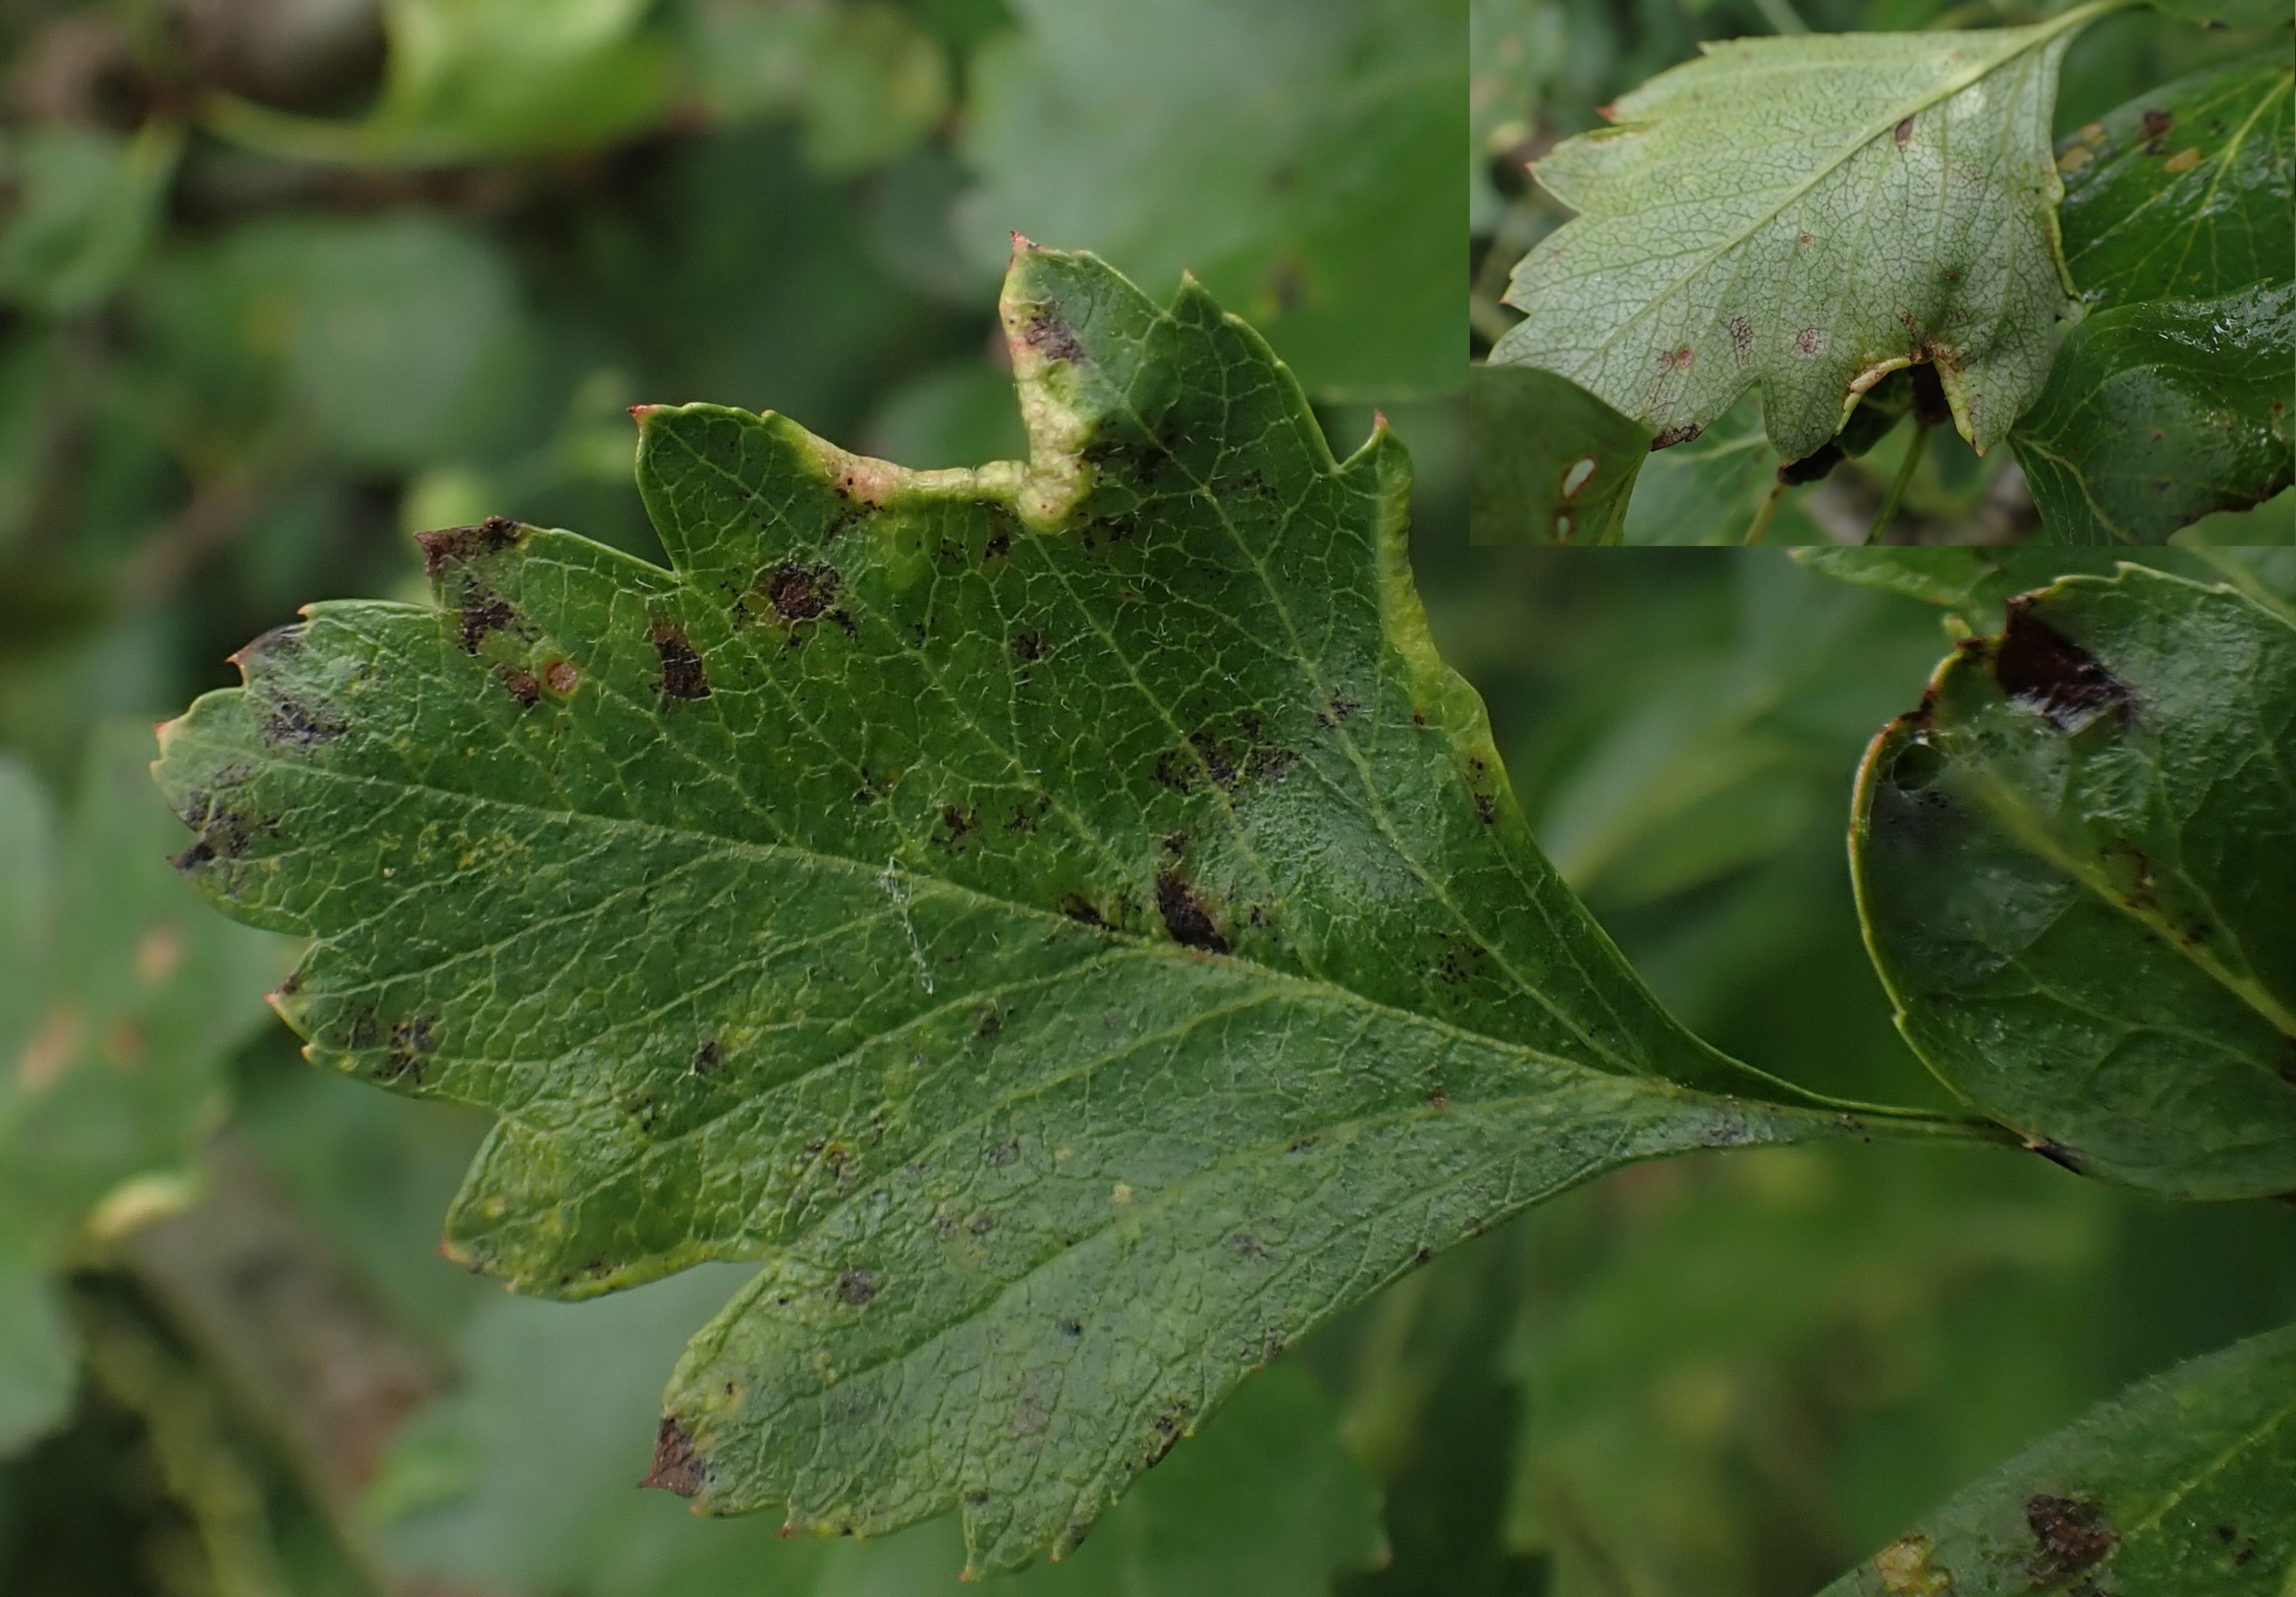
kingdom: Animalia
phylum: Arthropoda
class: Arachnida
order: Trombidiformes
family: Eriophyidae
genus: Phyllocoptes
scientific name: Phyllocoptes goniothorax
